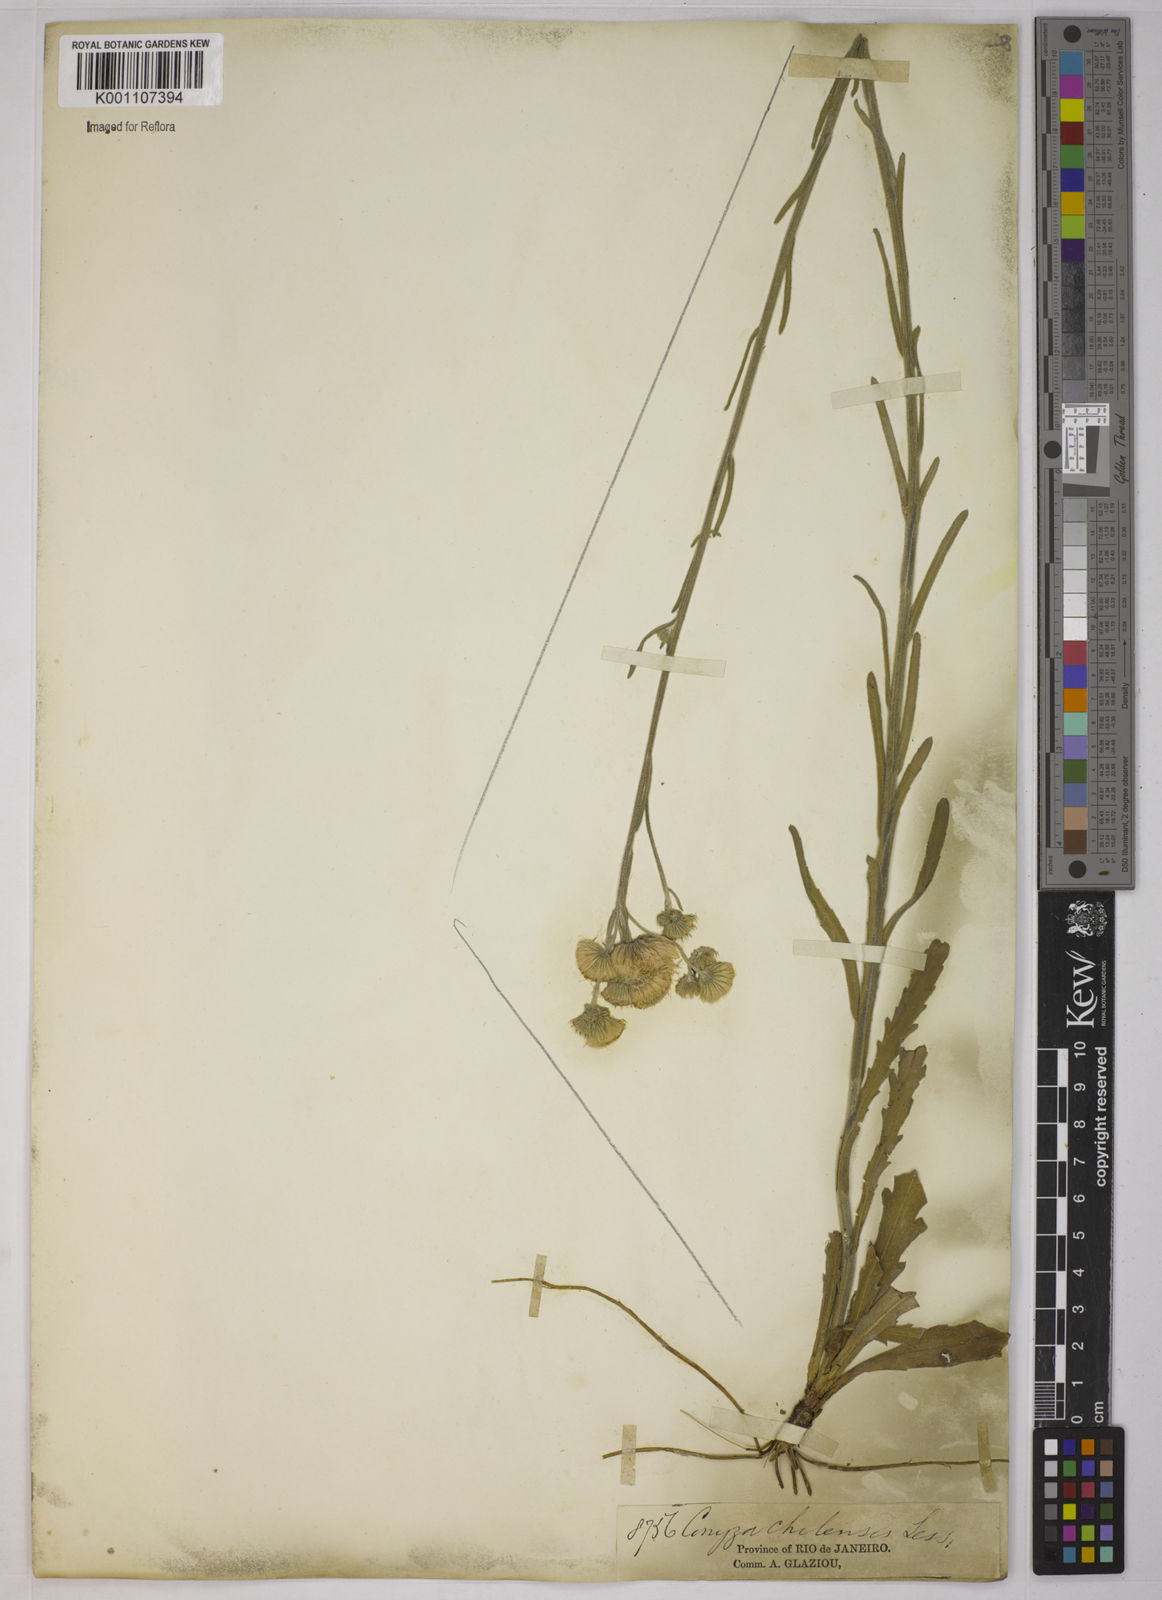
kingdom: Plantae
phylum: Tracheophyta
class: Magnoliopsida
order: Asterales
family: Asteraceae
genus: Conyza
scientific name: Conyza
